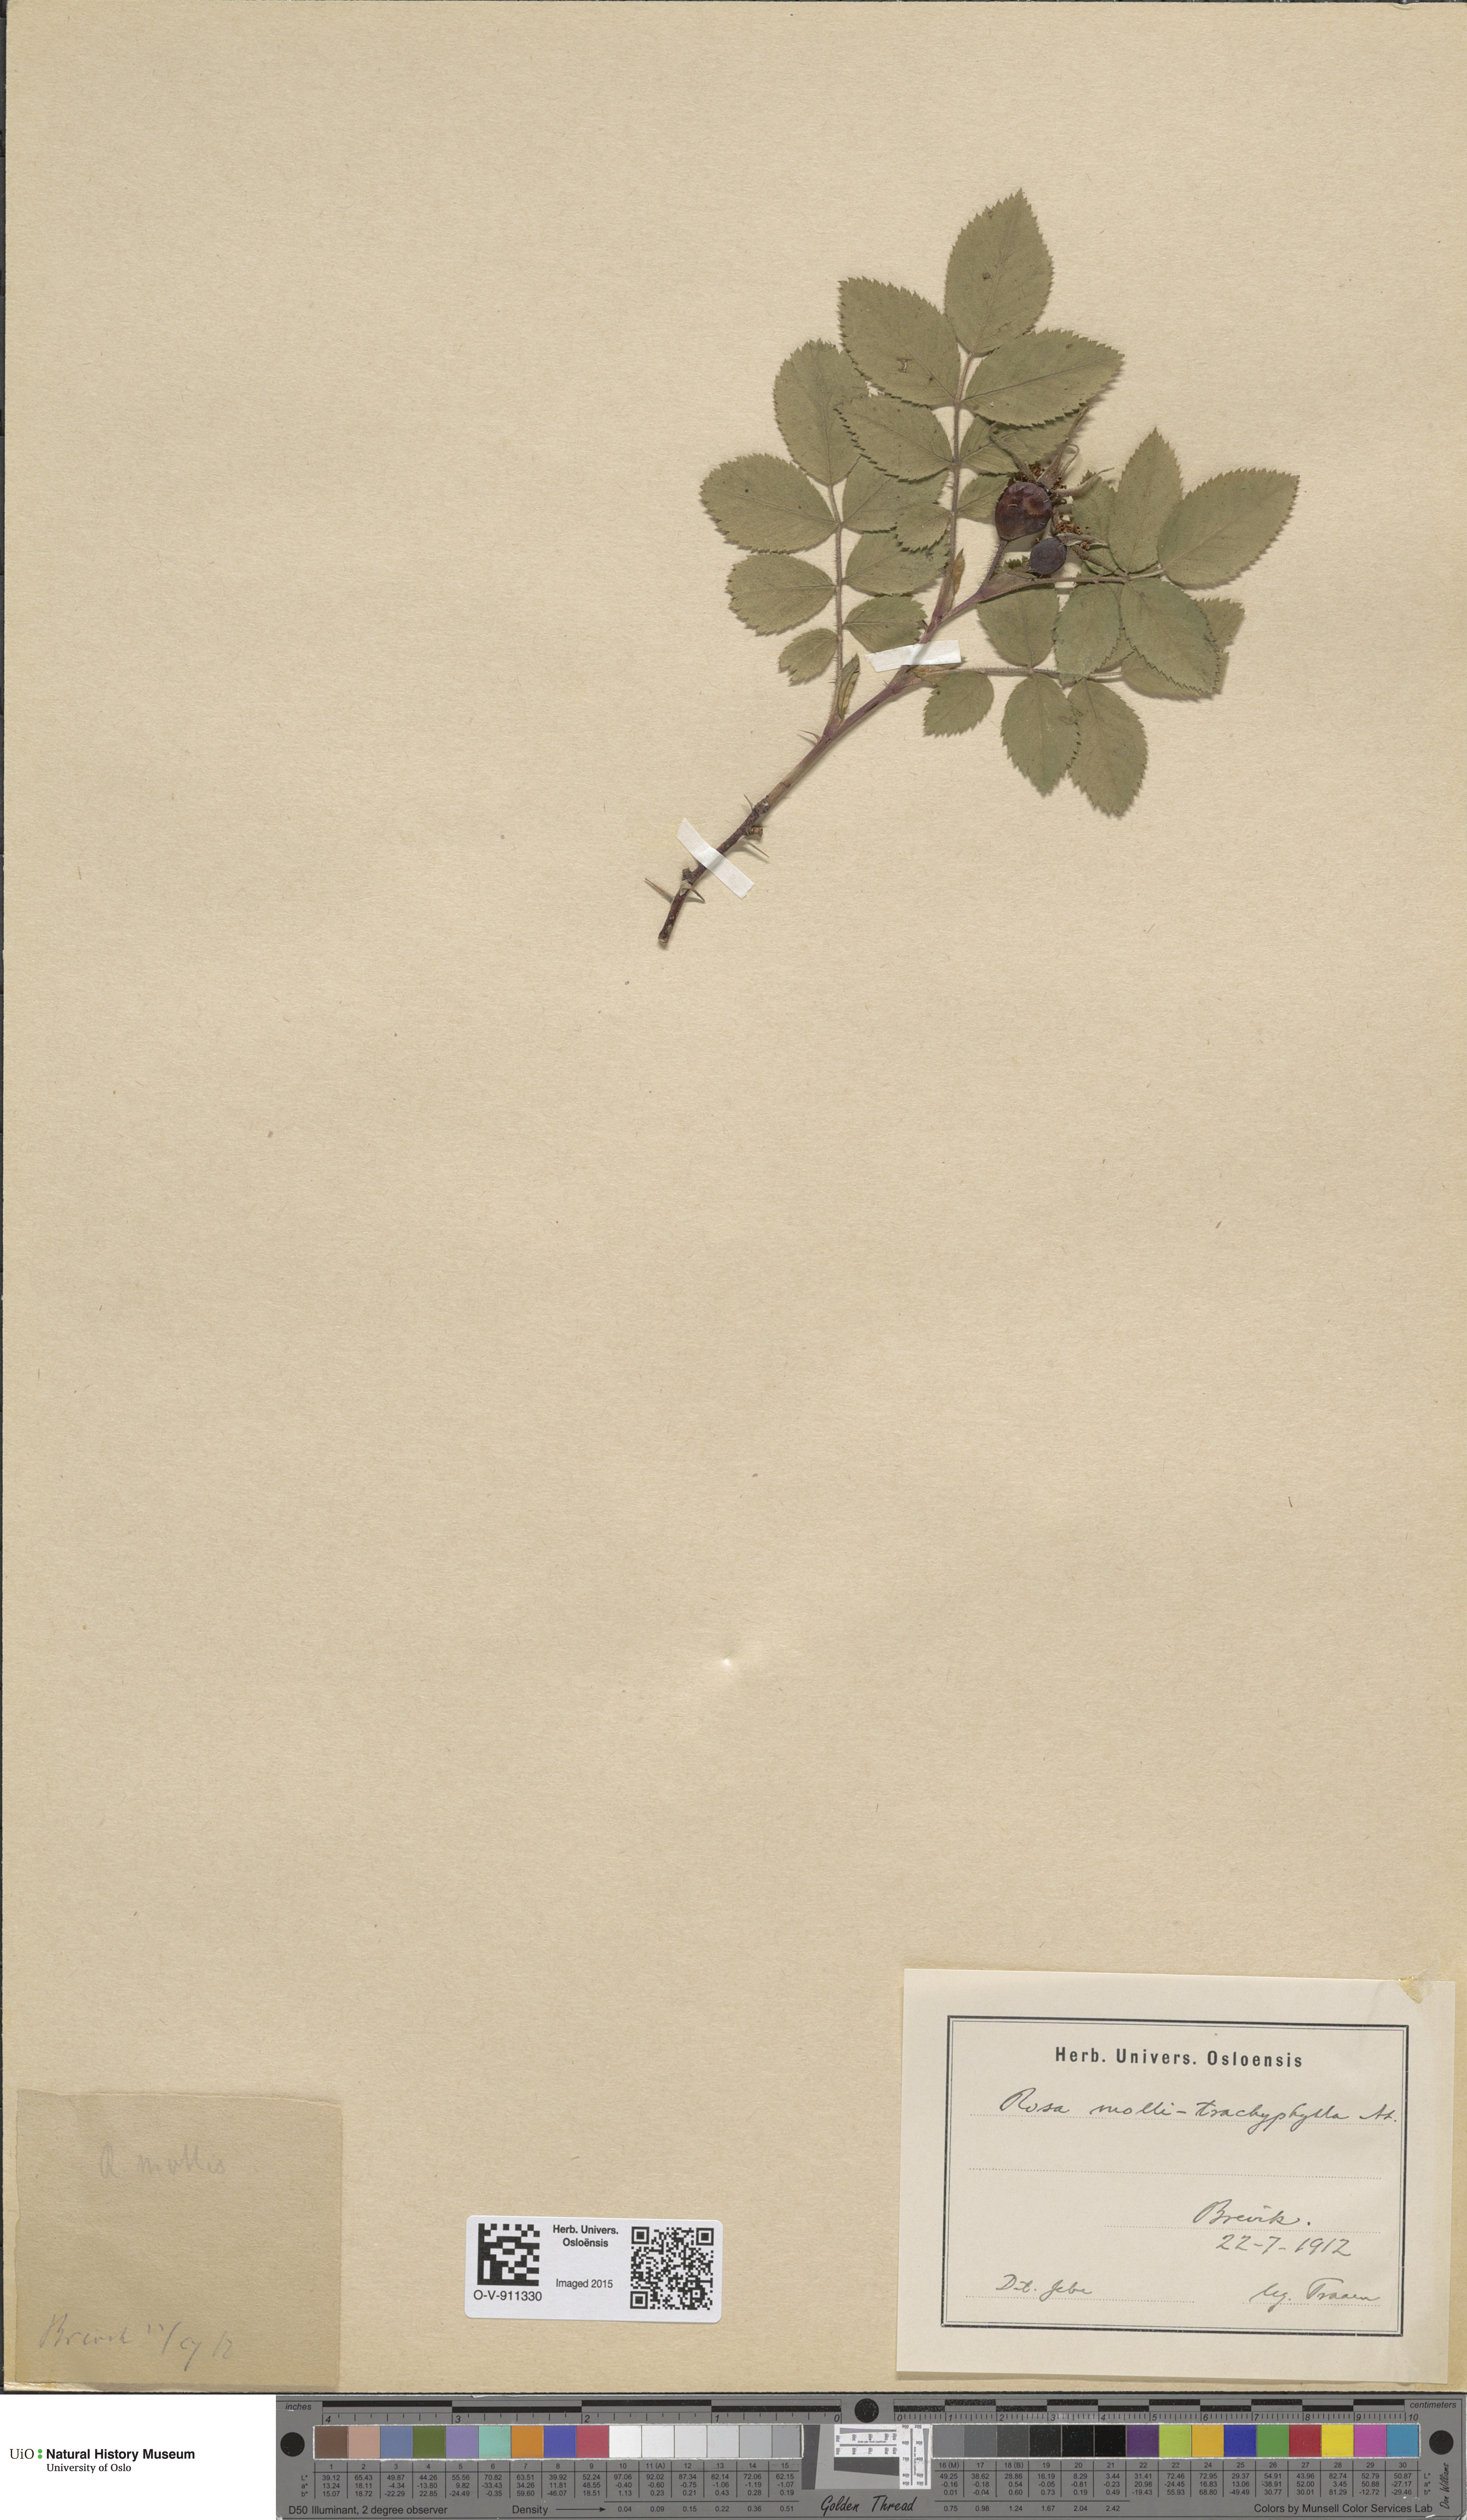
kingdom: Plantae
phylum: Tracheophyta
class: Magnoliopsida
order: Rosales
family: Rosaceae
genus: Rosa
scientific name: Rosa mollis
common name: Rose
